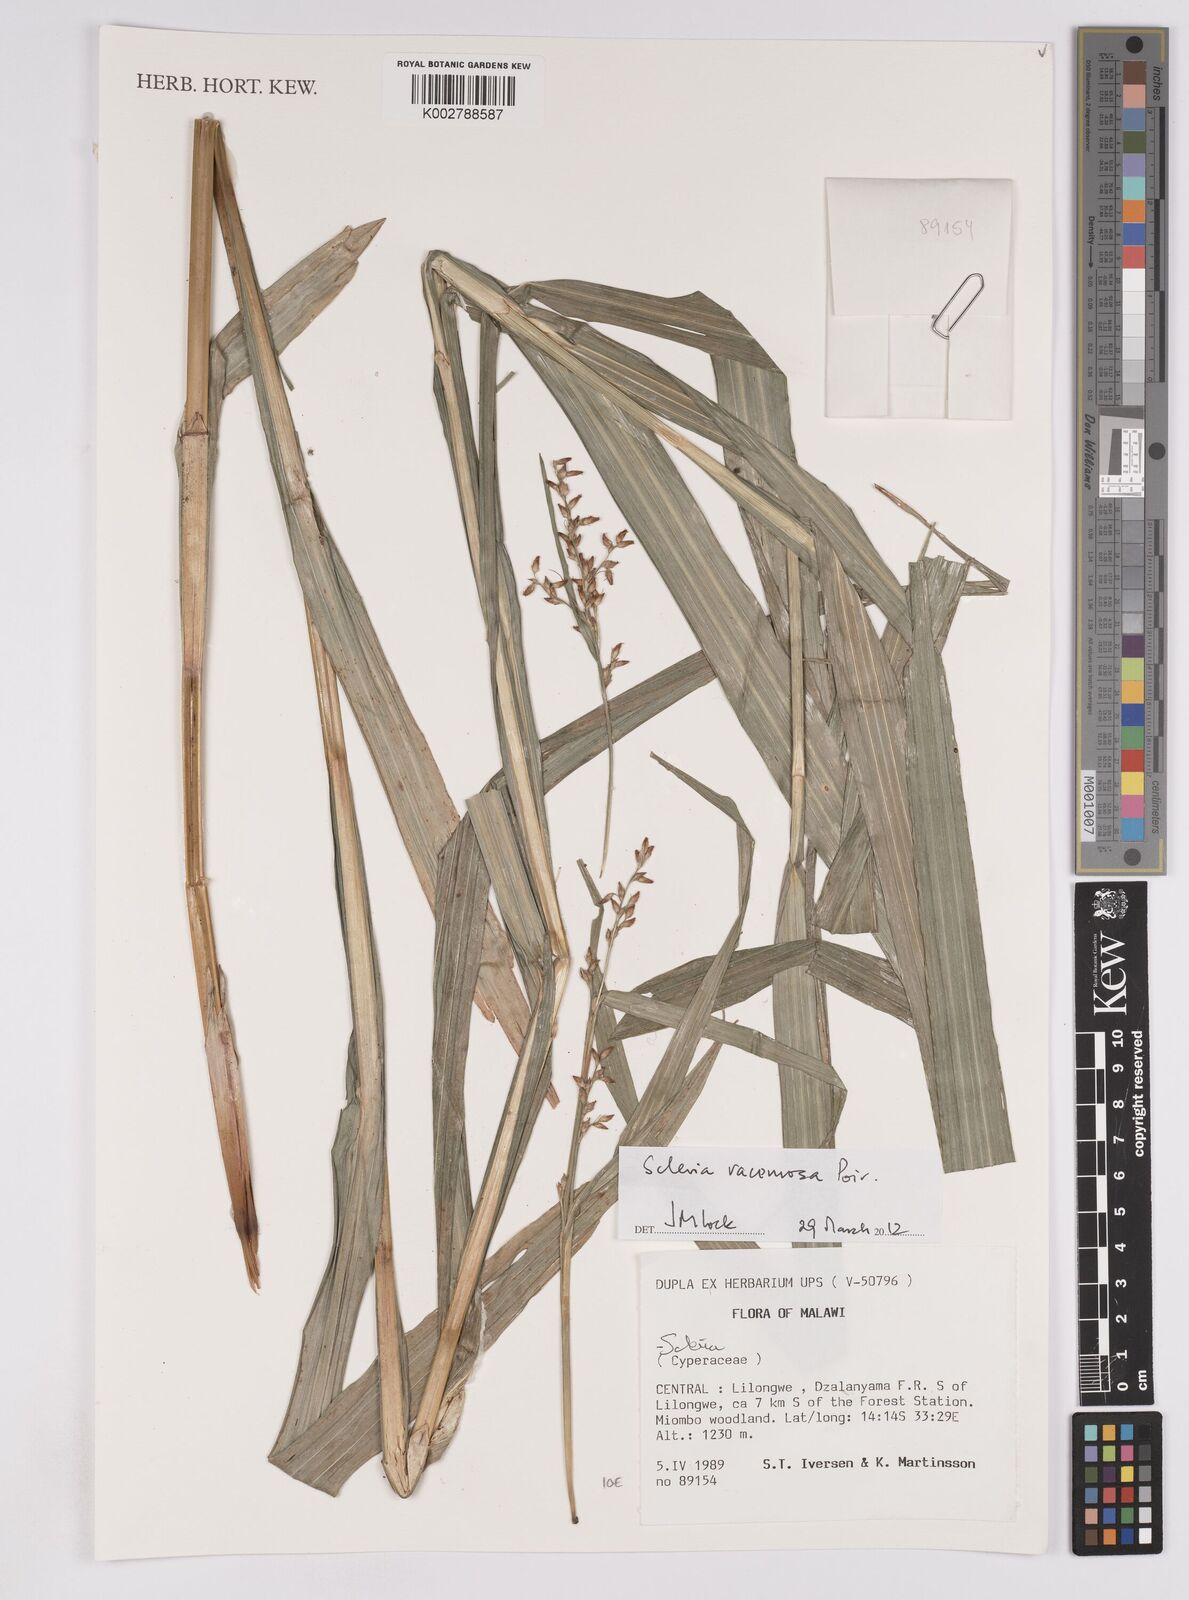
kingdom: Plantae
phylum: Tracheophyta
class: Liliopsida
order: Poales
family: Cyperaceae
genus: Scleria
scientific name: Scleria racemosa
